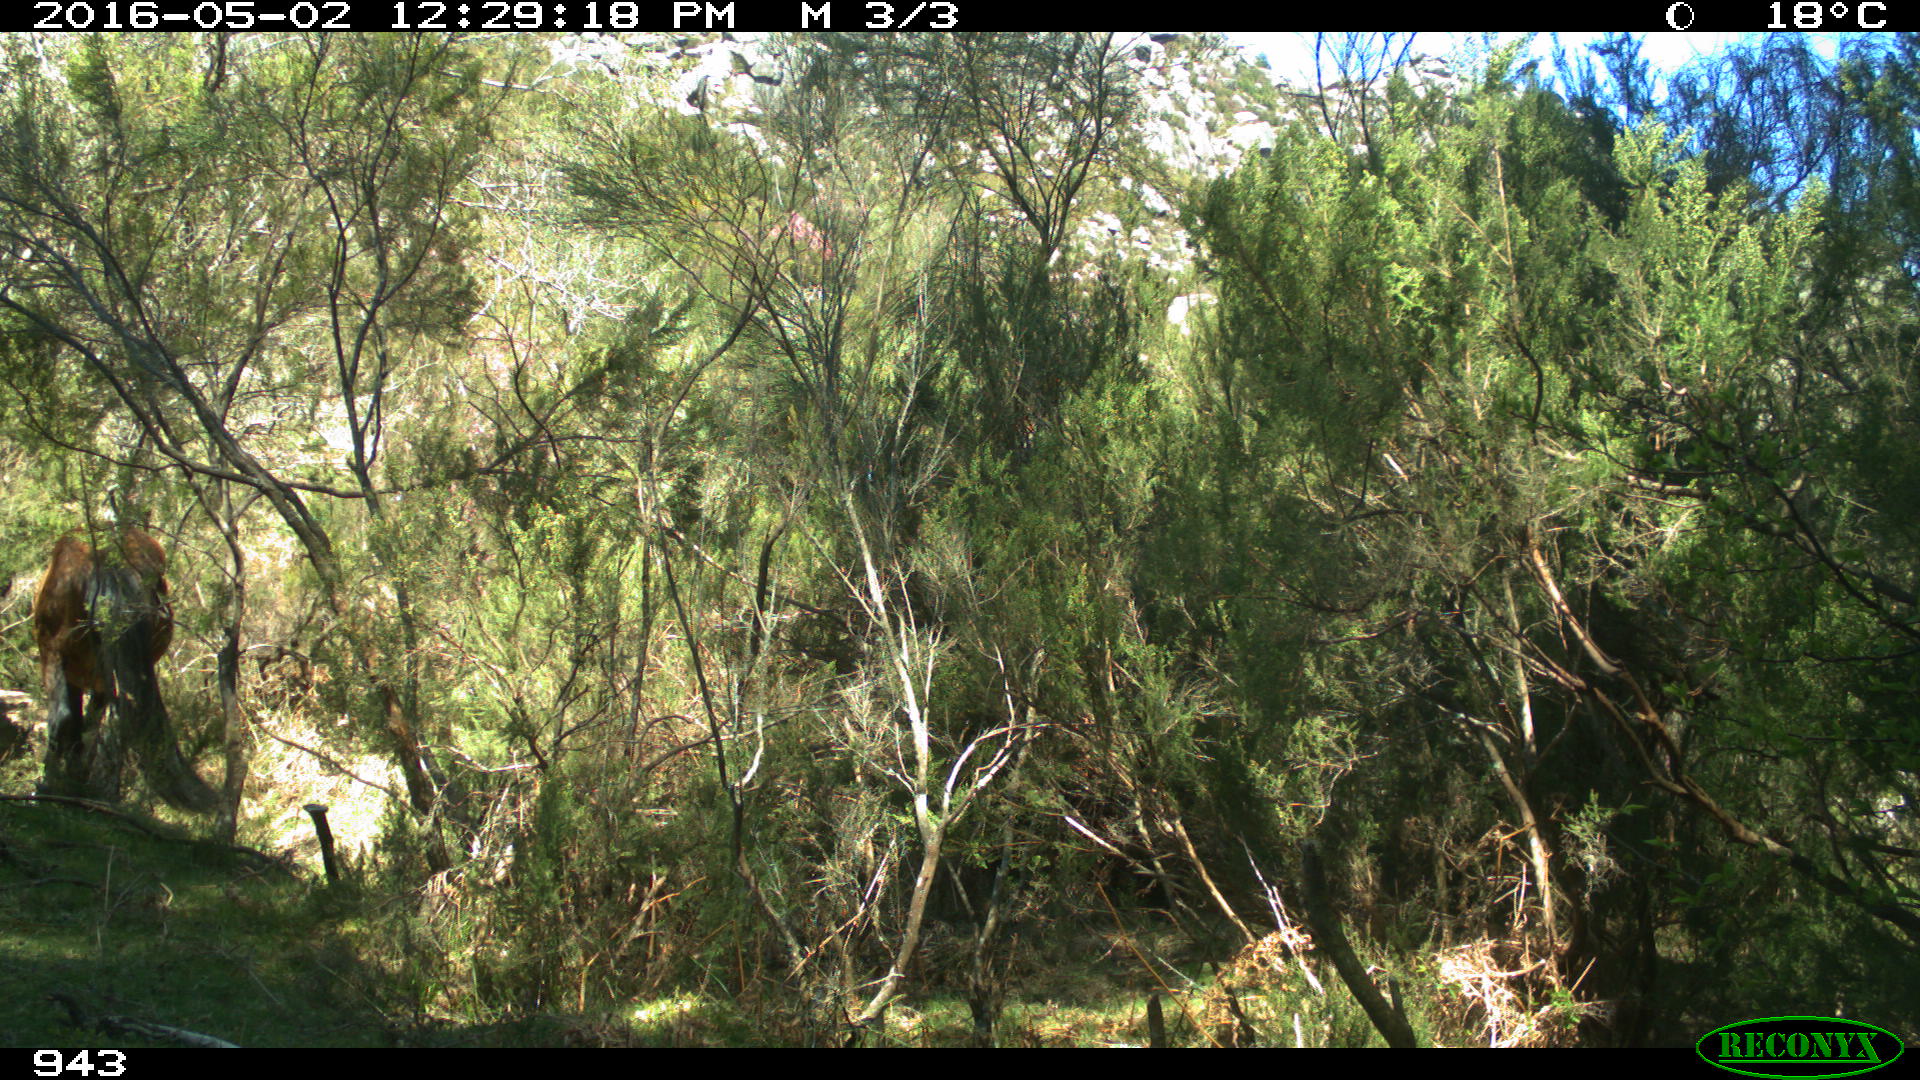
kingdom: Animalia
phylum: Chordata
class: Mammalia
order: Perissodactyla
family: Equidae
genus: Equus
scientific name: Equus caballus
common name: Horse
